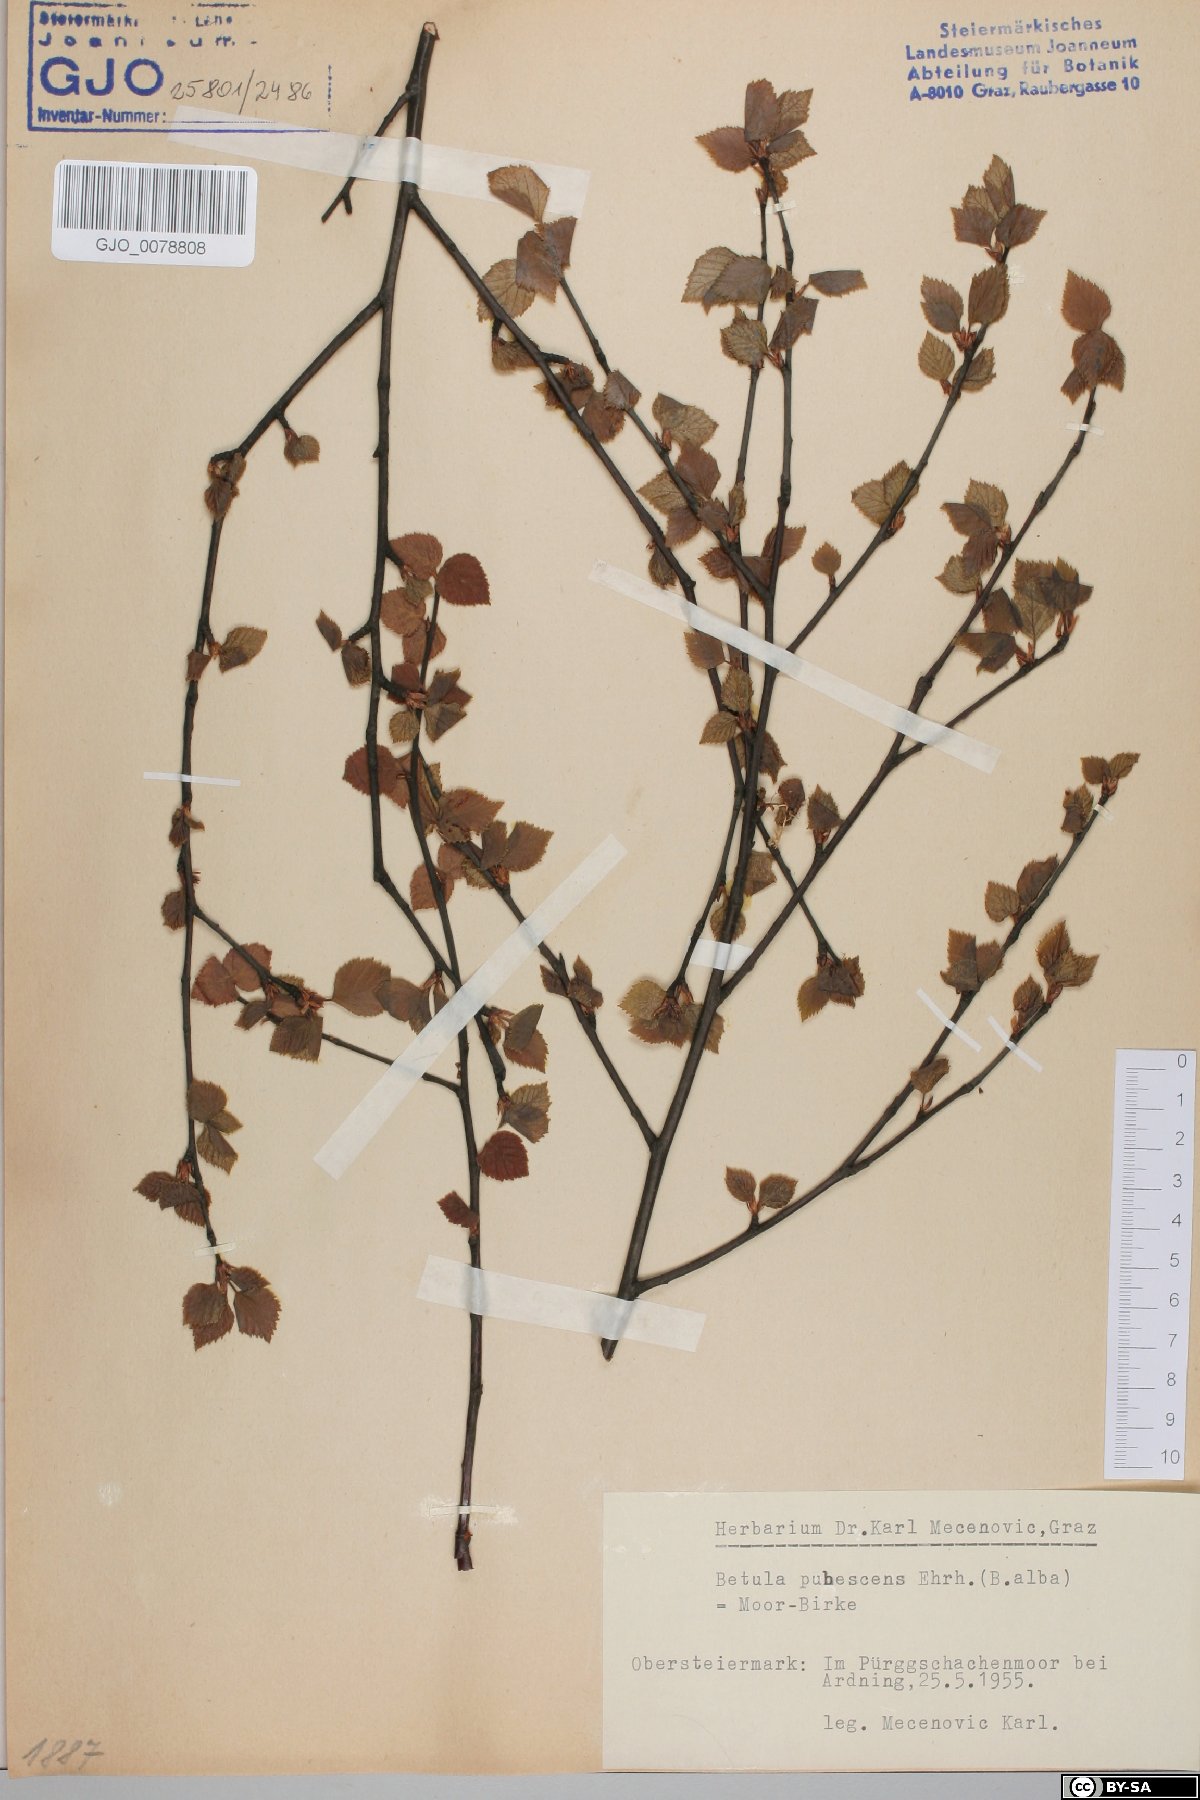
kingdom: Plantae
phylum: Tracheophyta
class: Magnoliopsida
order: Fagales
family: Betulaceae
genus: Betula
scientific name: Betula pubescens
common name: Downy birch
